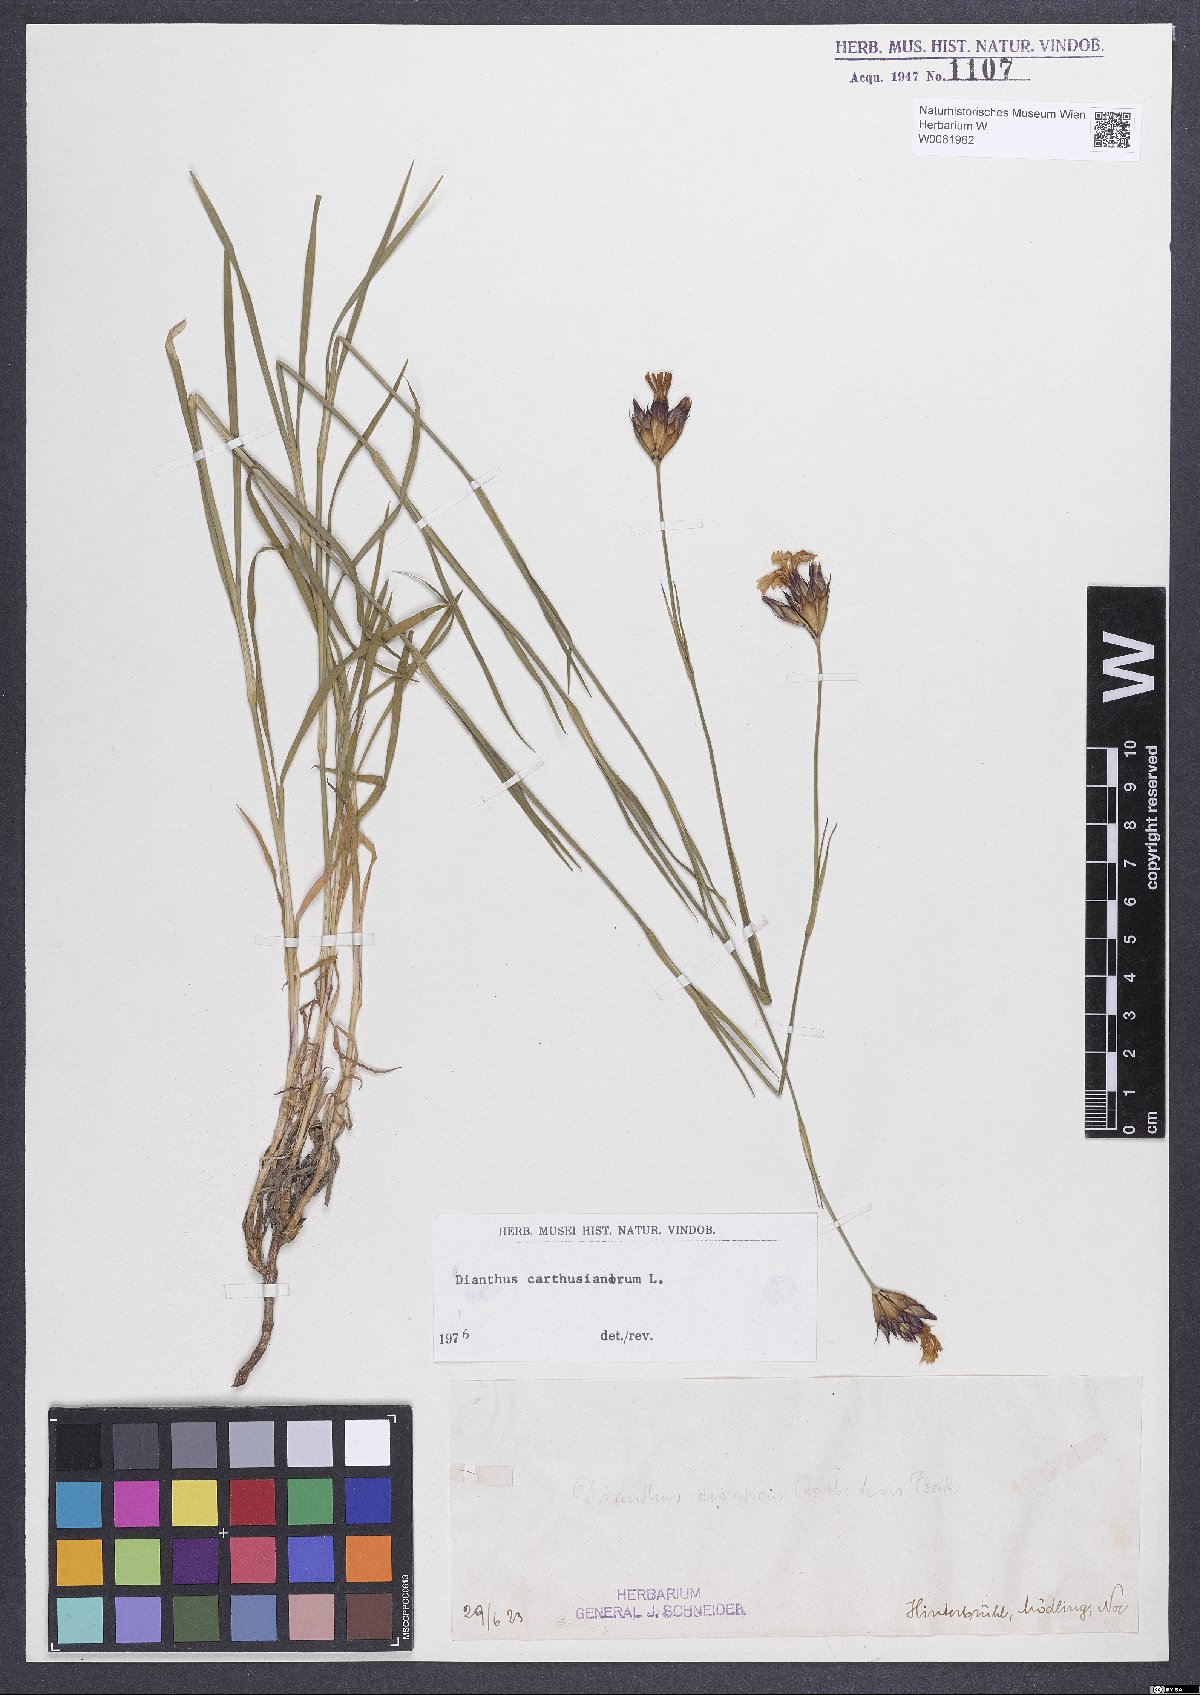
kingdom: Plantae
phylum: Tracheophyta
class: Magnoliopsida
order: Caryophyllales
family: Caryophyllaceae
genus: Dianthus
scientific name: Dianthus carthusianorum
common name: Carthusian pink
